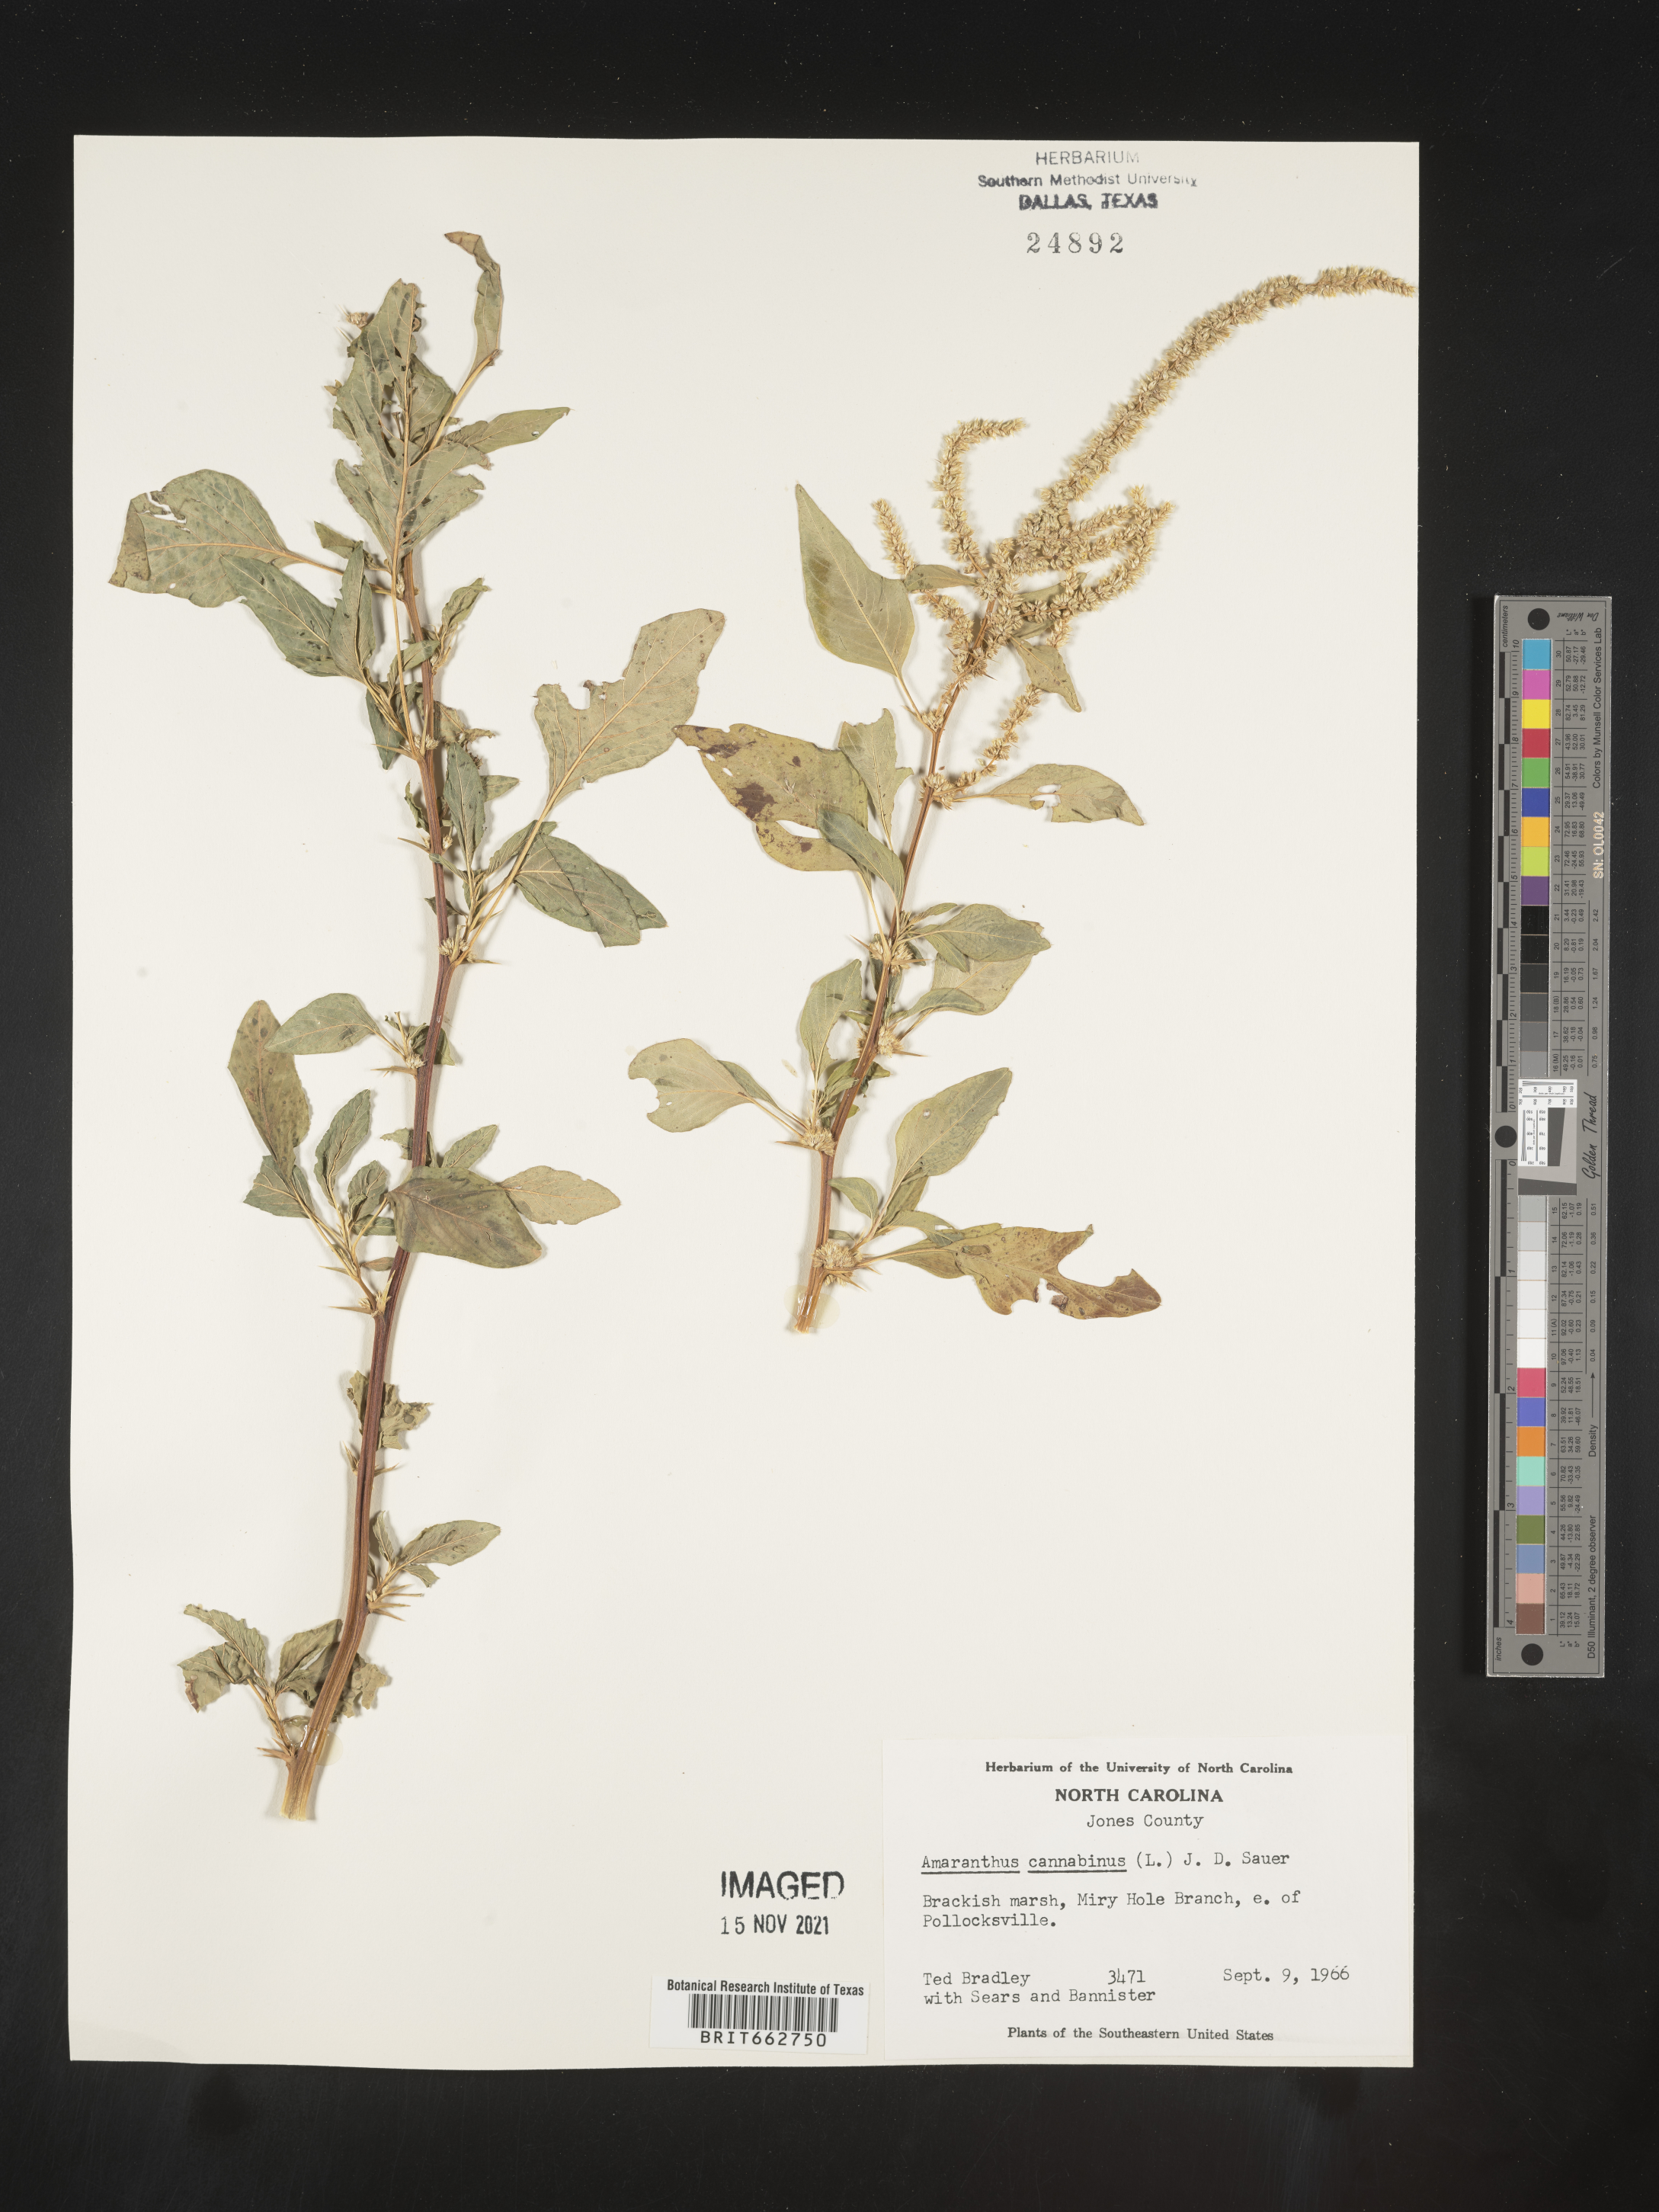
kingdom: Plantae
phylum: Tracheophyta
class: Magnoliopsida
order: Caryophyllales
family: Amaranthaceae
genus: Amaranthus
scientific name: Amaranthus powellii
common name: Powell's amaranth
